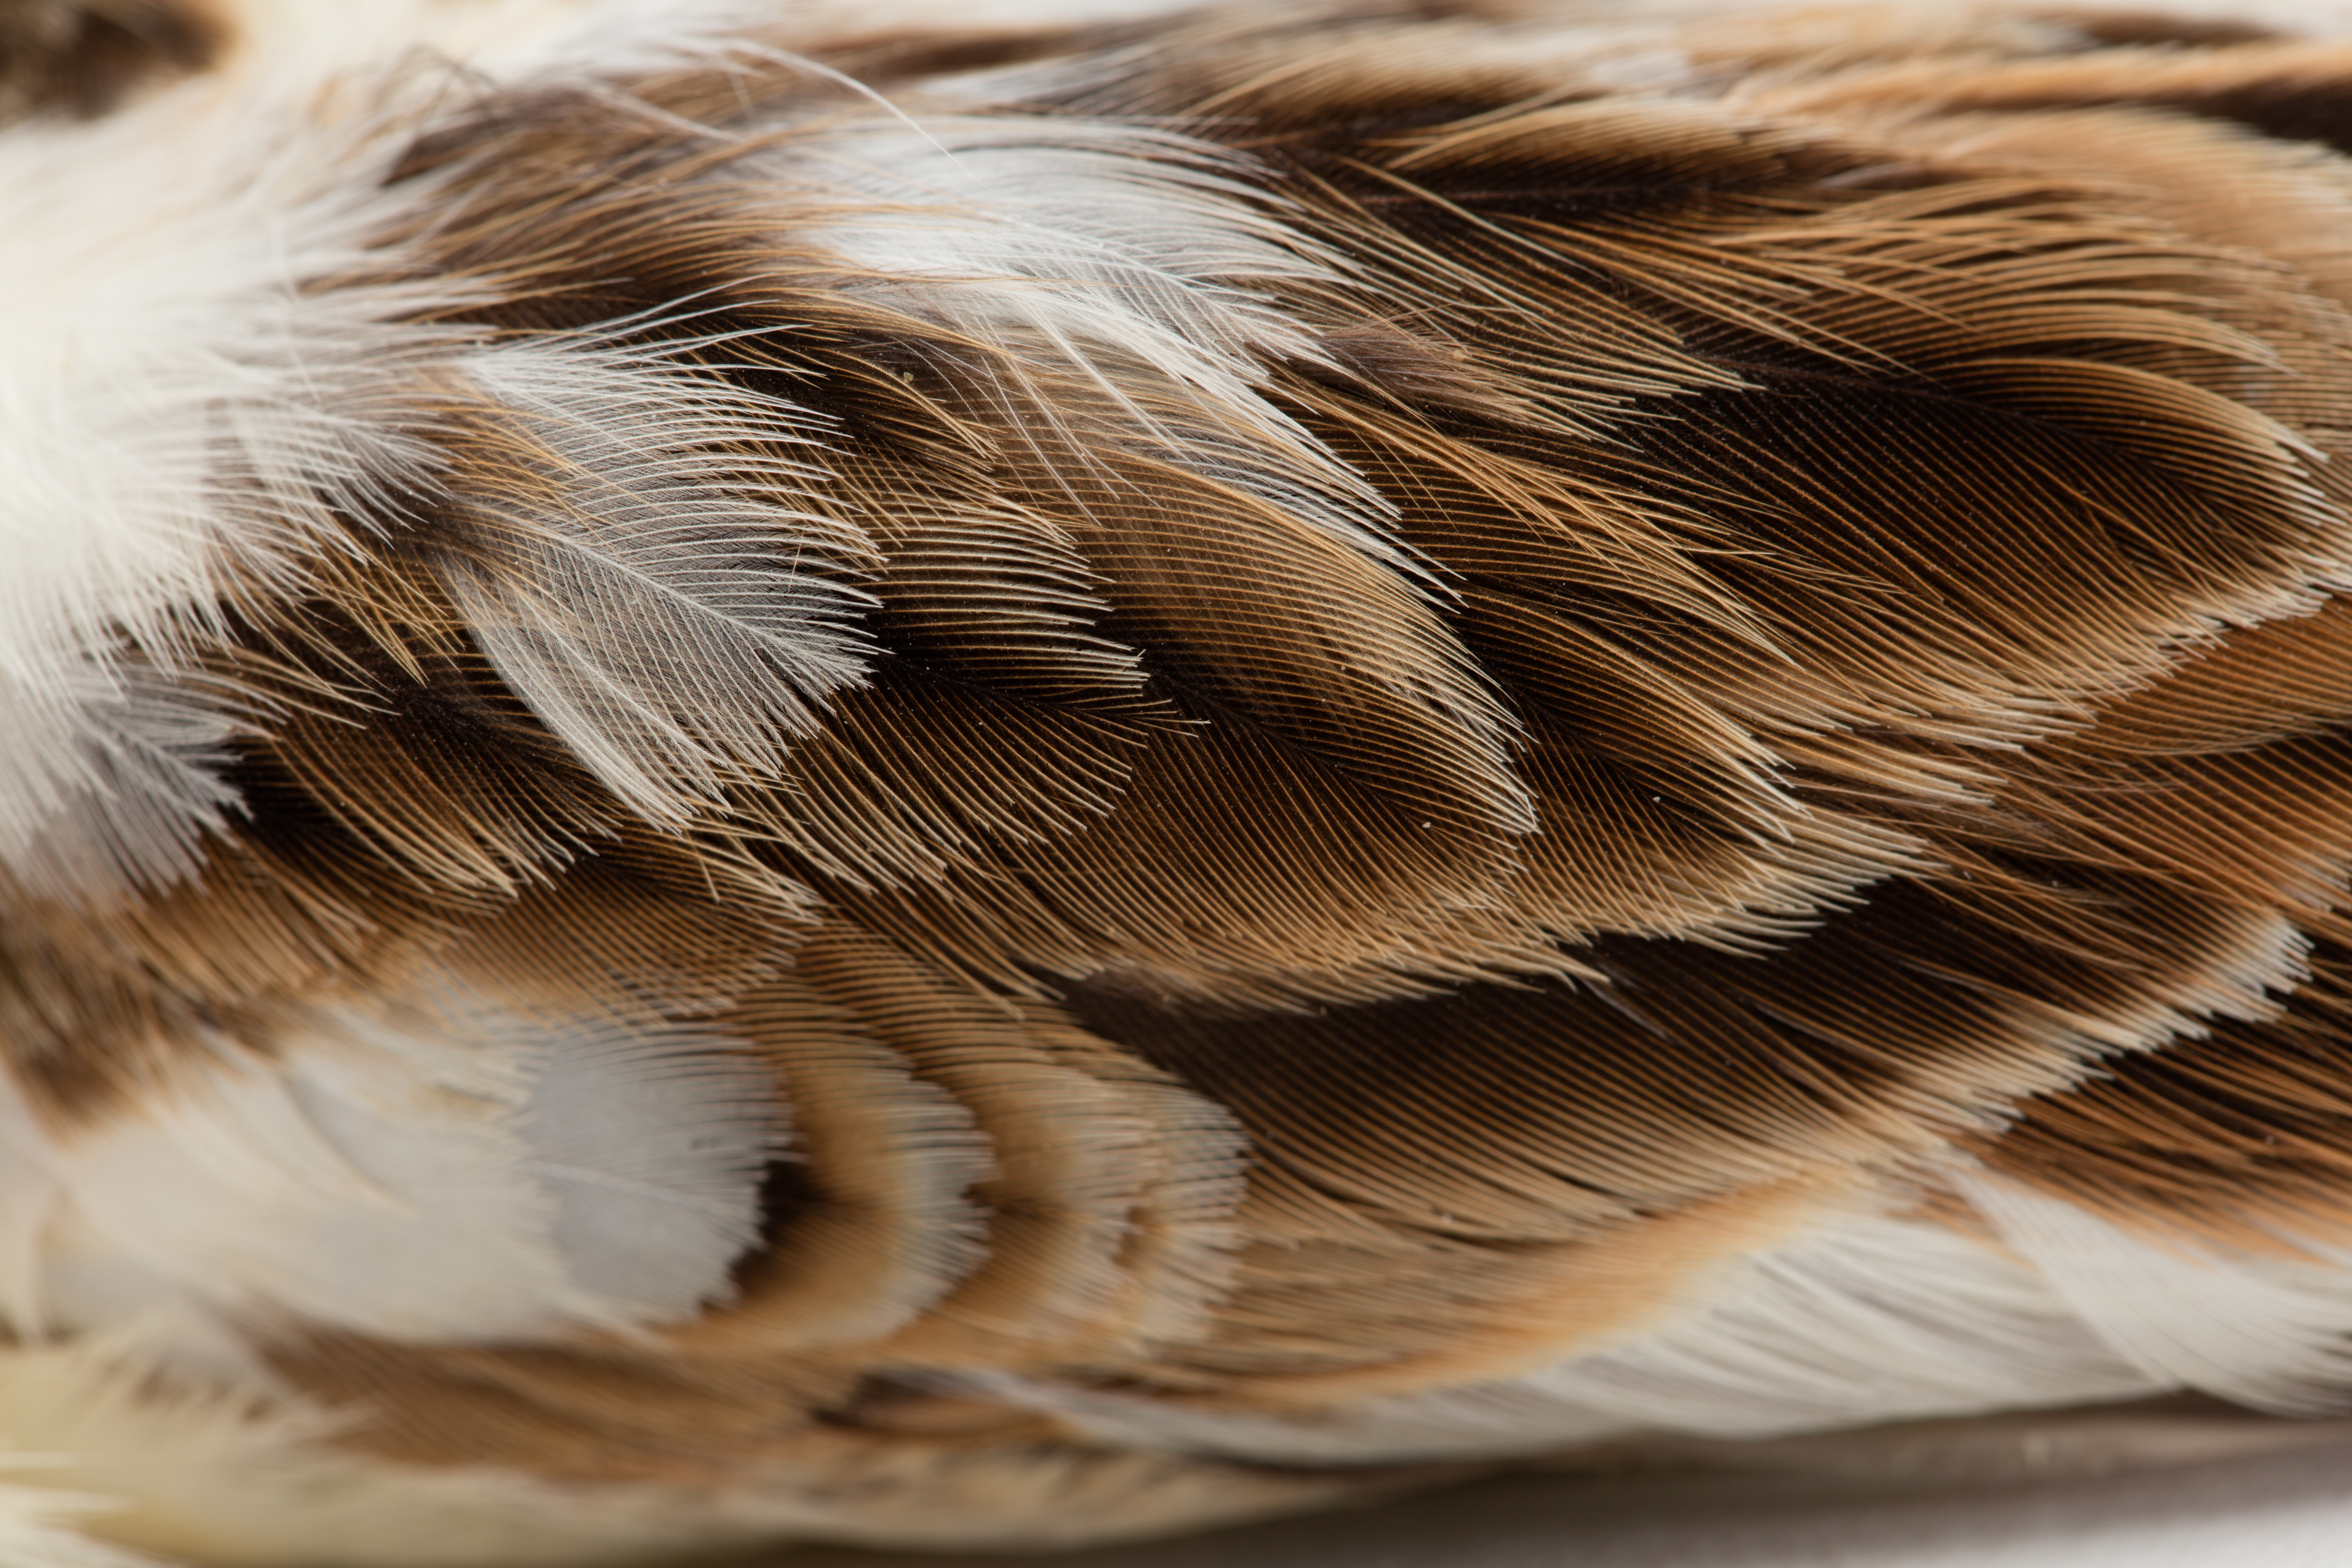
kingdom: Animalia
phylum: Chordata
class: Aves
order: Passeriformes
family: Alaudidae
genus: Alauda
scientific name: Alauda arvensis
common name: Eurasian skylark
